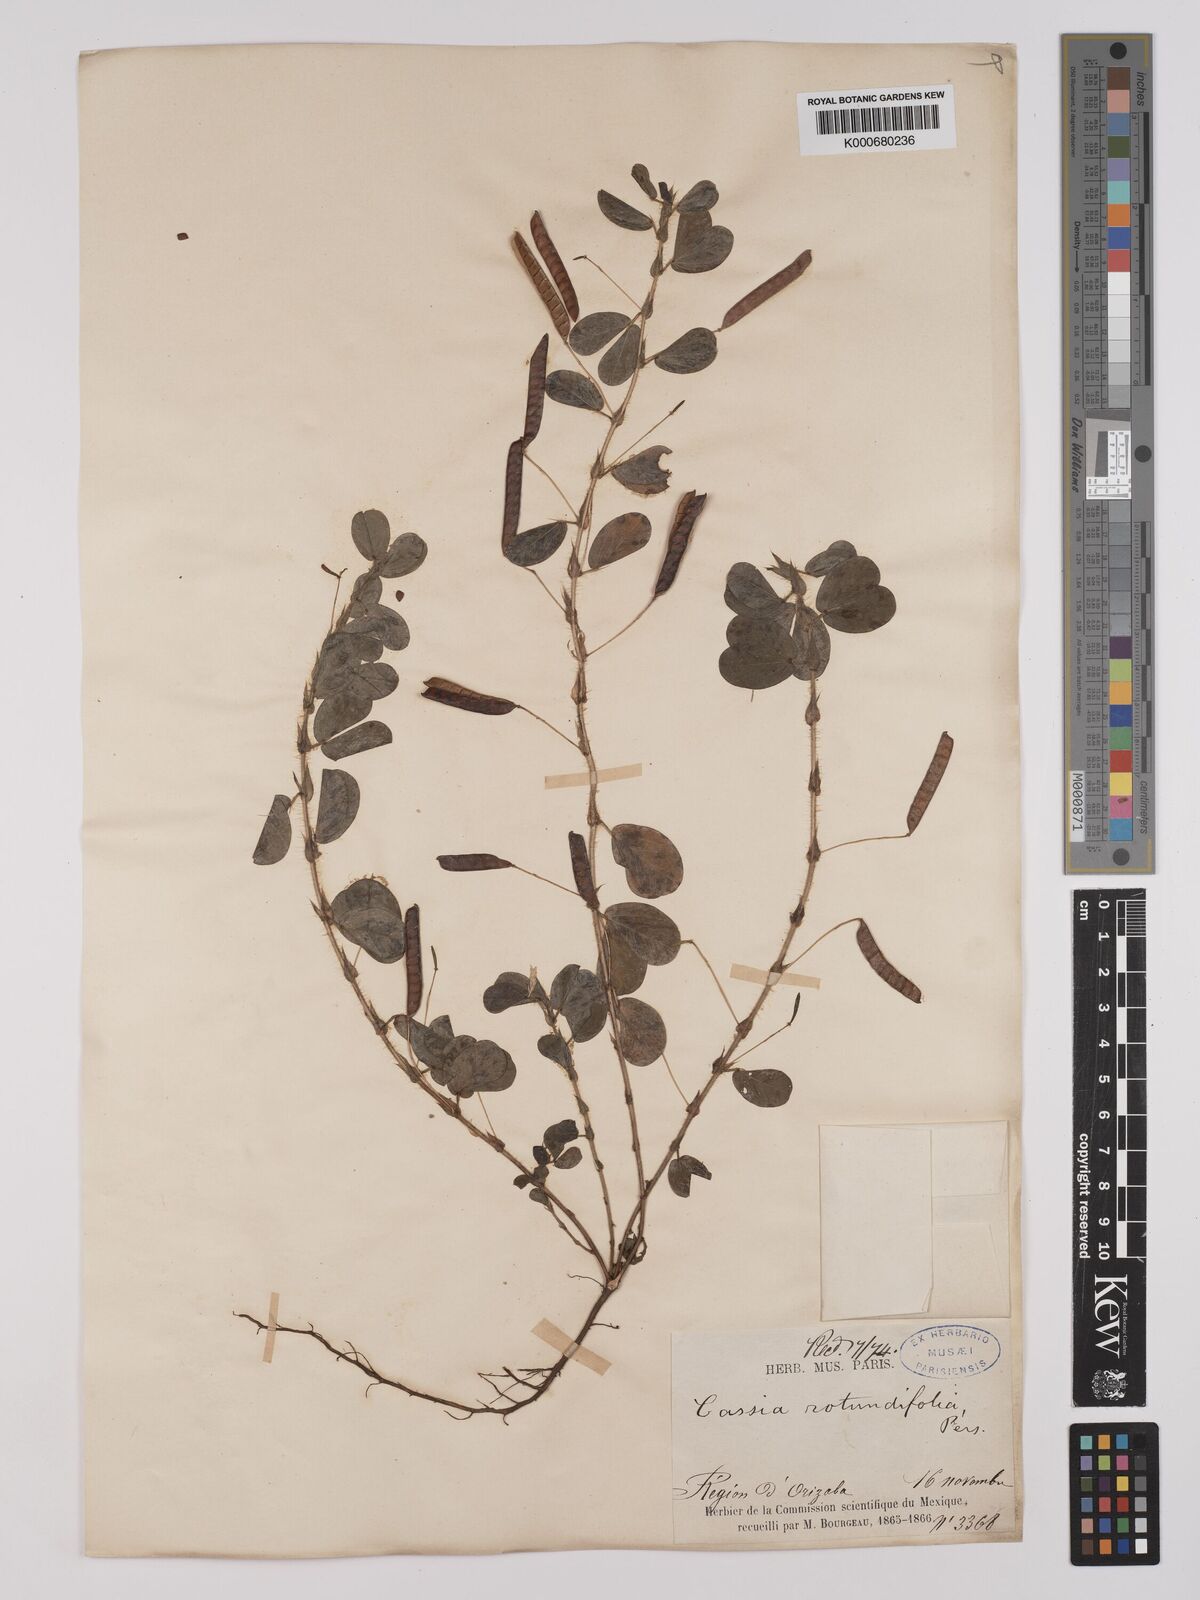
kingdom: Plantae
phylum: Tracheophyta
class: Magnoliopsida
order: Fabales
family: Fabaceae
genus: Chamaecrista
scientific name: Chamaecrista rotundifolia
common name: Round-leaf cassia
